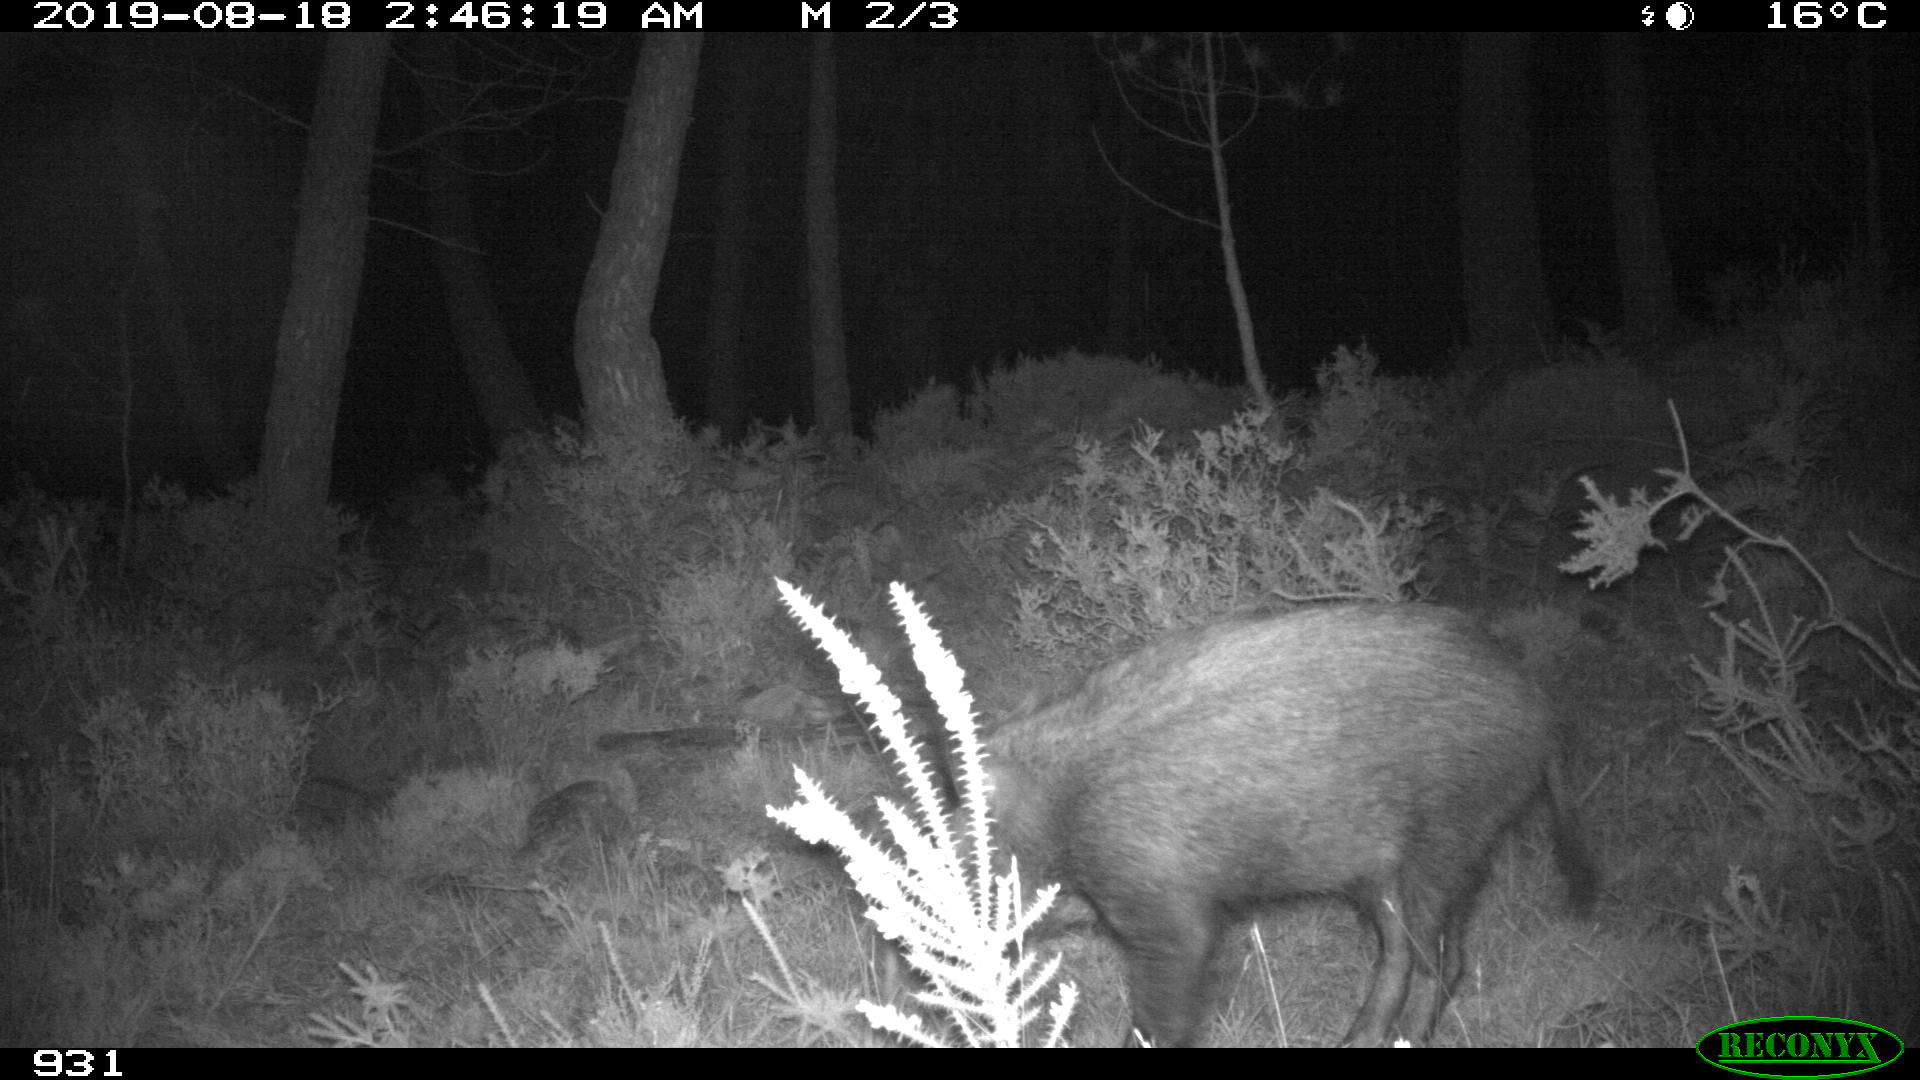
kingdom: Animalia
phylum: Chordata
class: Mammalia
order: Artiodactyla
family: Suidae
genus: Sus
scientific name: Sus scrofa
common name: Wild boar
